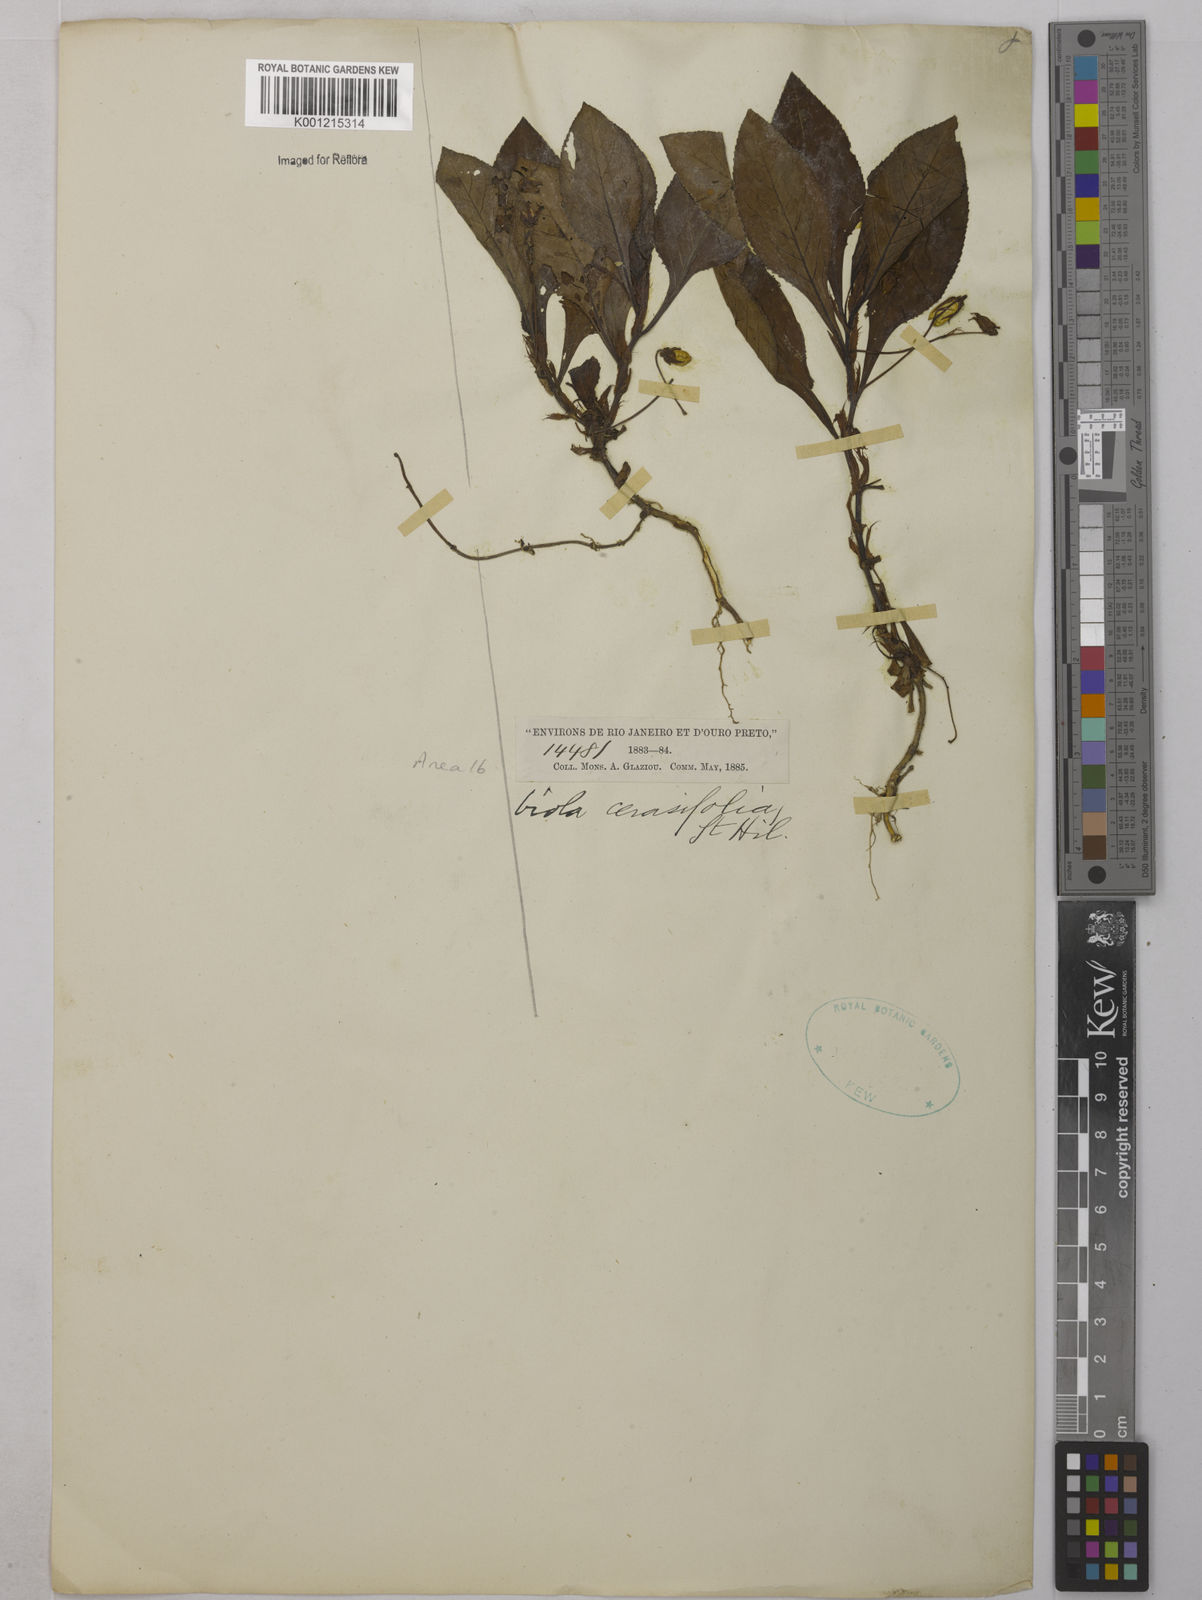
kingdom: Plantae
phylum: Tracheophyta
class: Magnoliopsida
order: Malpighiales
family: Violaceae
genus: Viola
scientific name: Viola cerasifolia
